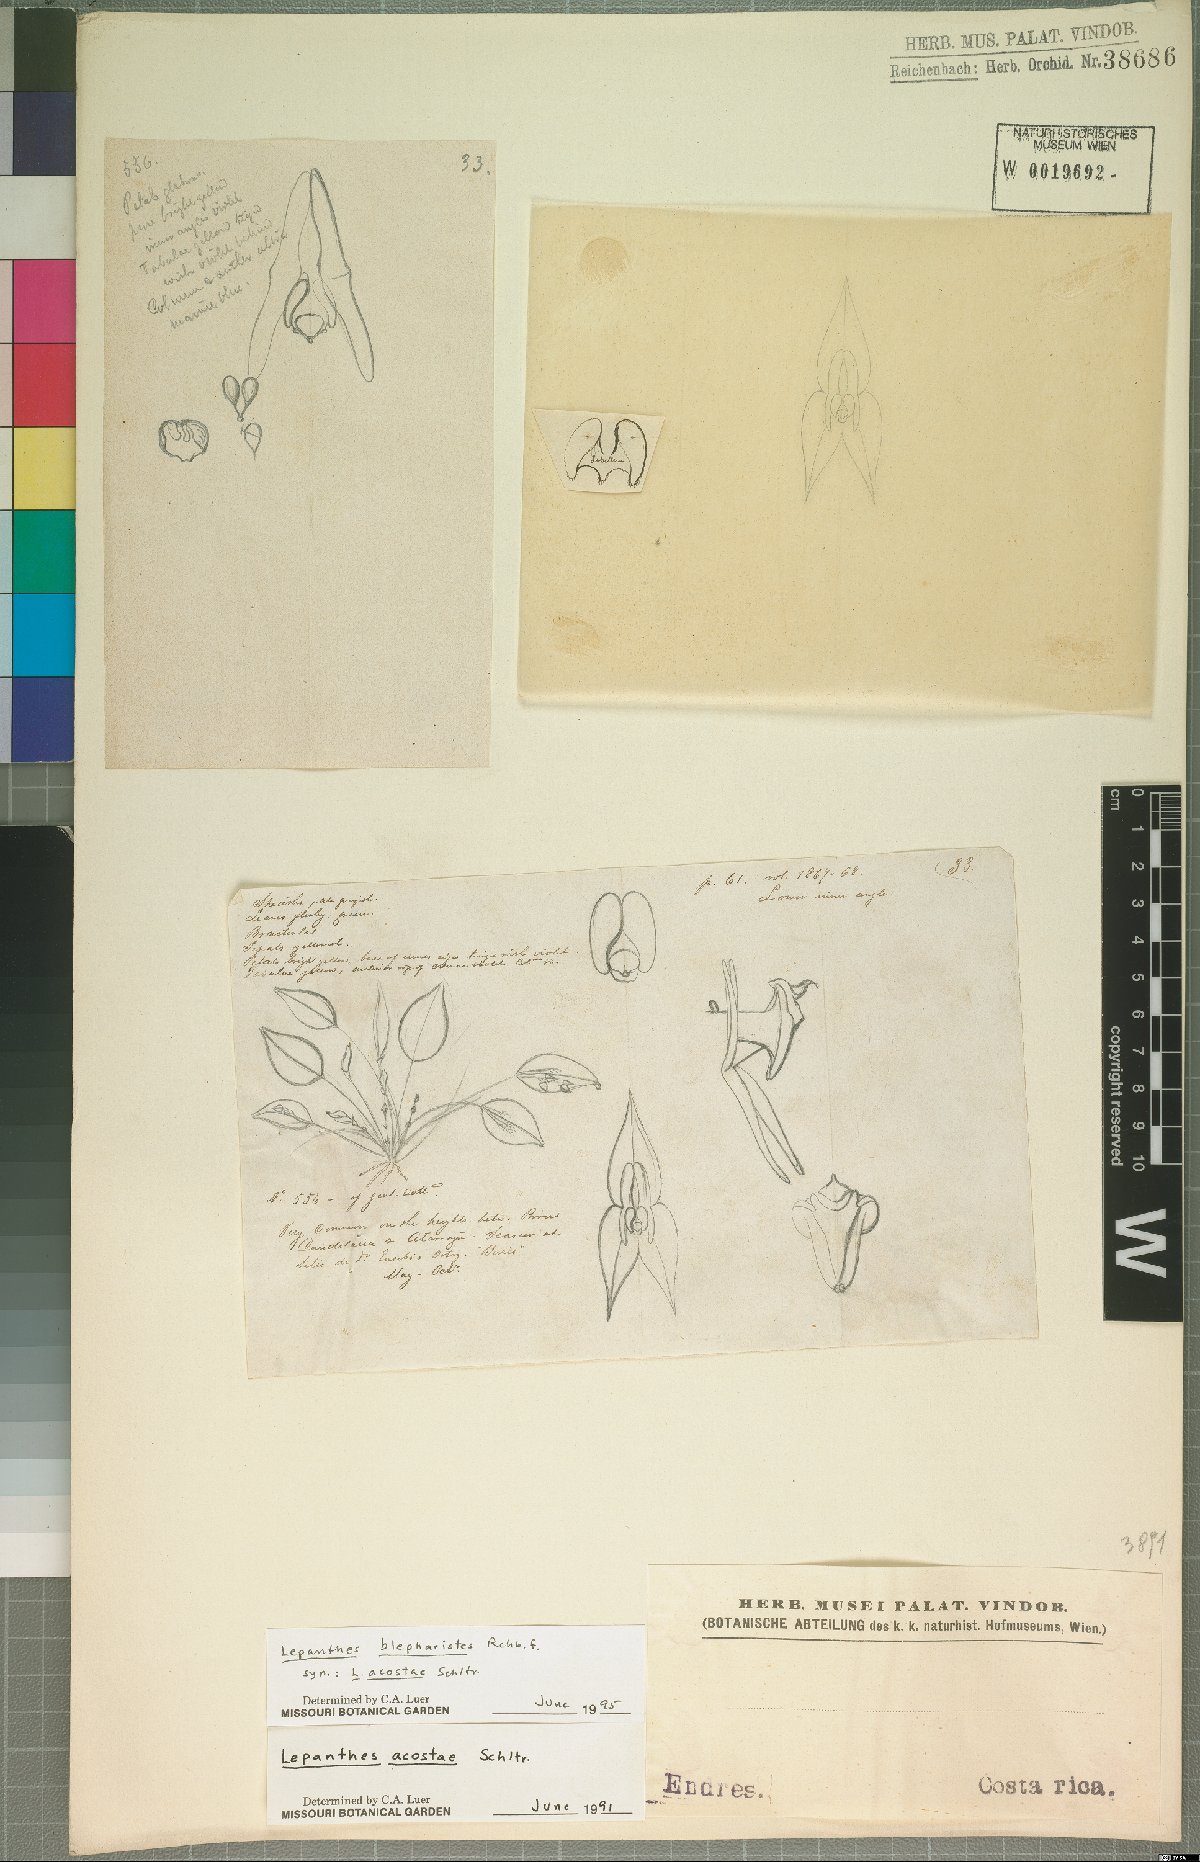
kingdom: Plantae
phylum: Tracheophyta
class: Liliopsida
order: Asparagales
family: Orchidaceae
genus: Lepanthes
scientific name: Lepanthes blepharistes
